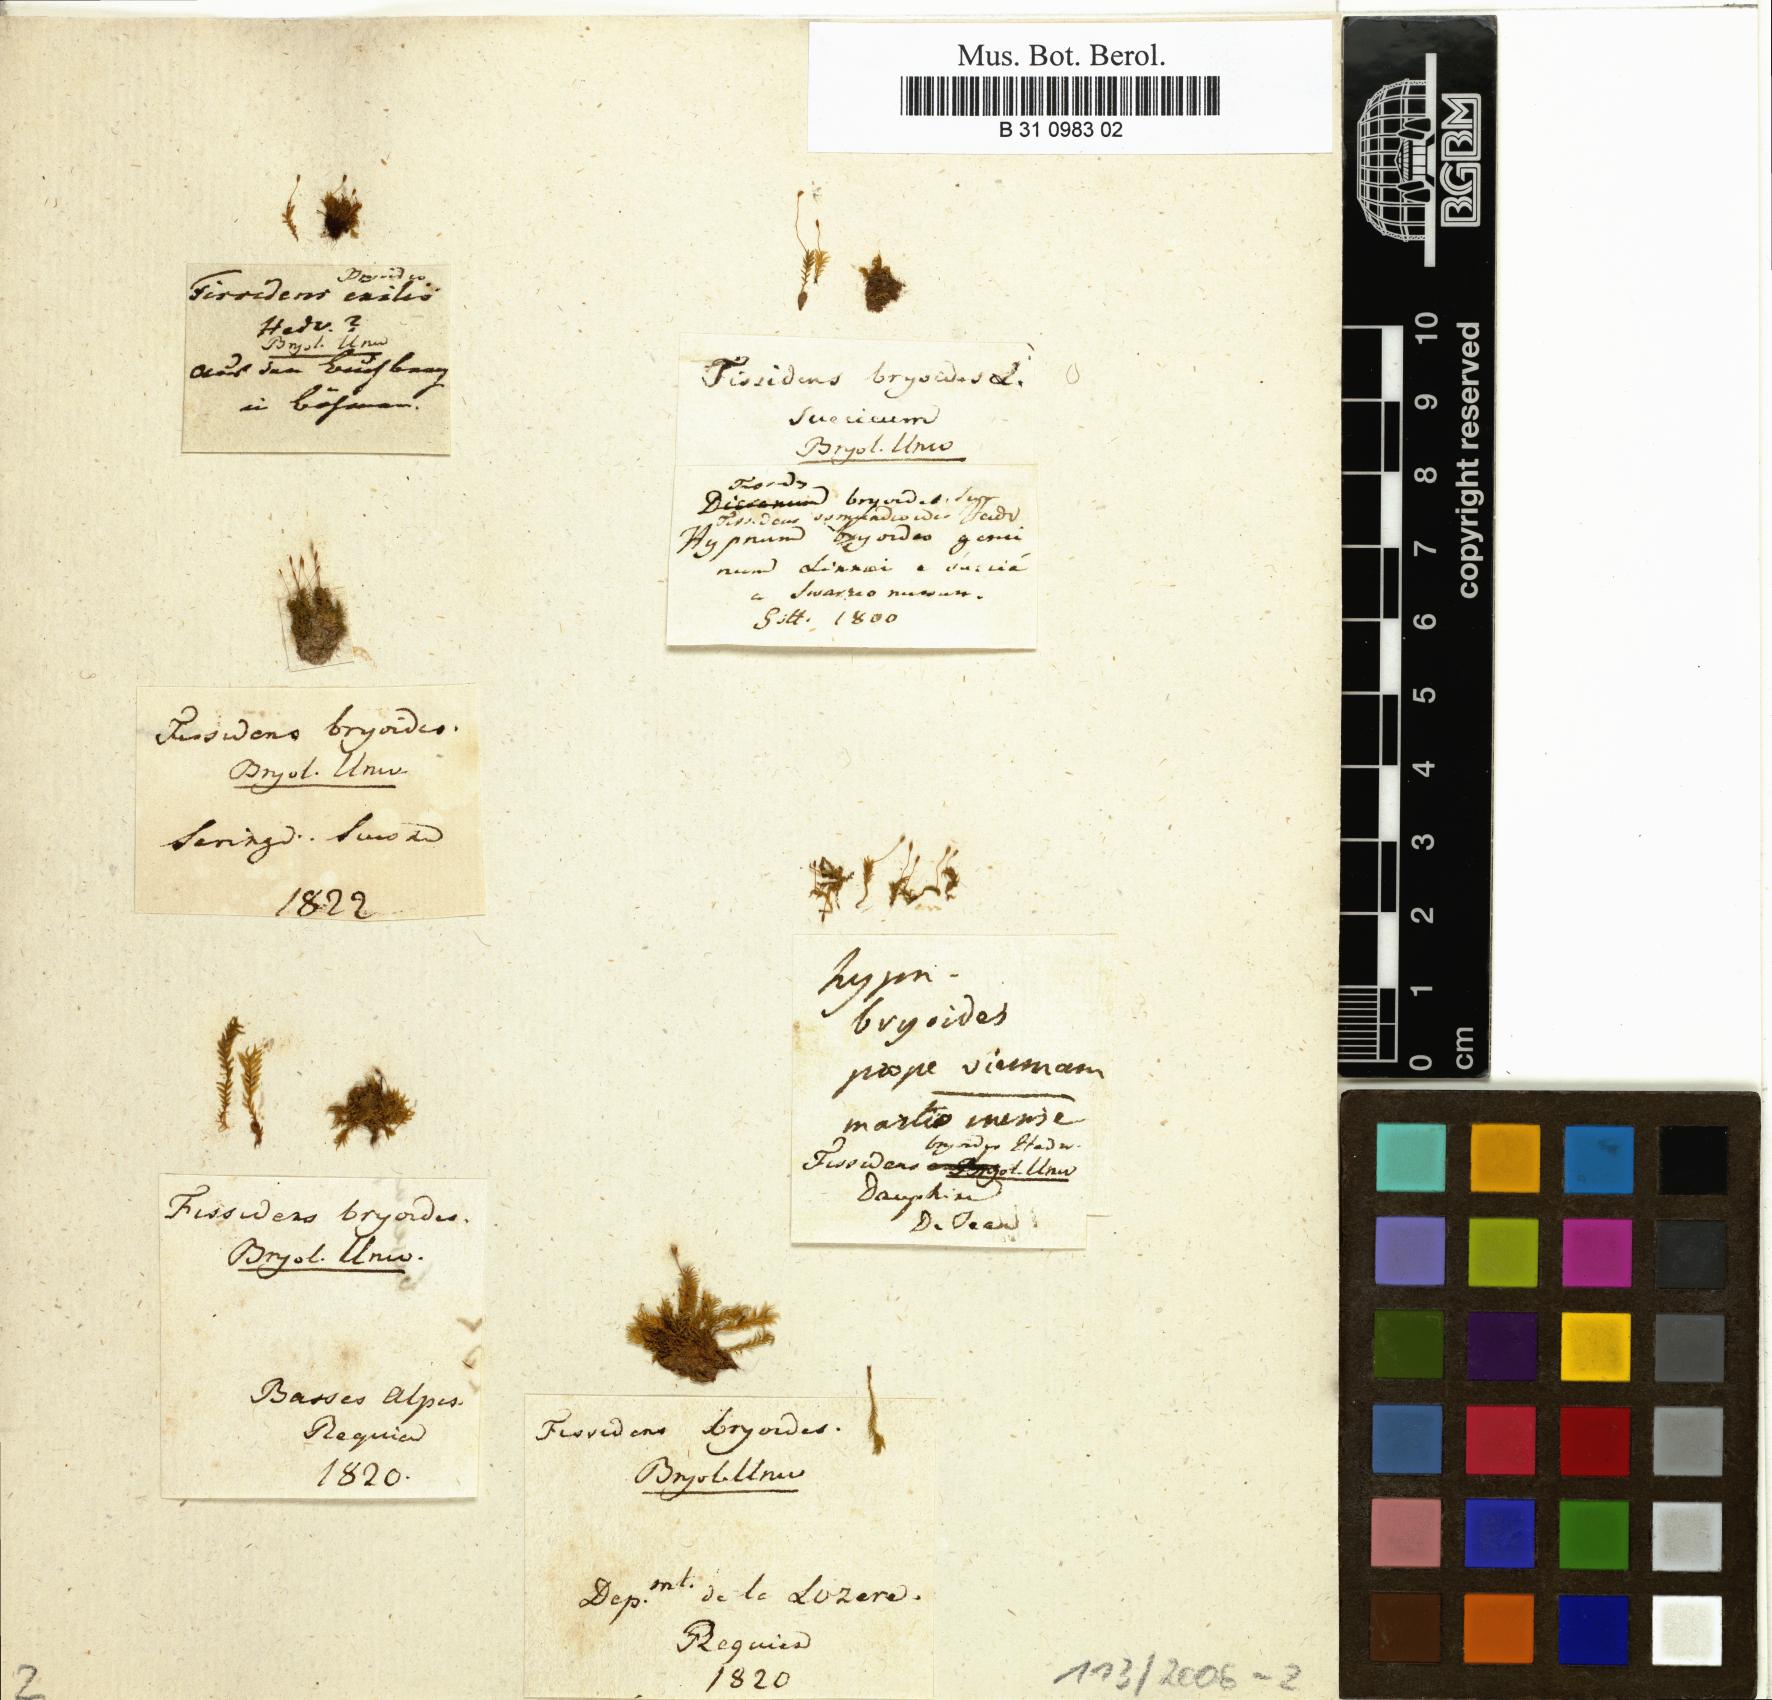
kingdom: Plantae
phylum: Bryophyta
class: Bryopsida
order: Dicranales
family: Fissidentaceae
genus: Fissidens
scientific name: Fissidens bryoides
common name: Lesser pocket moss
